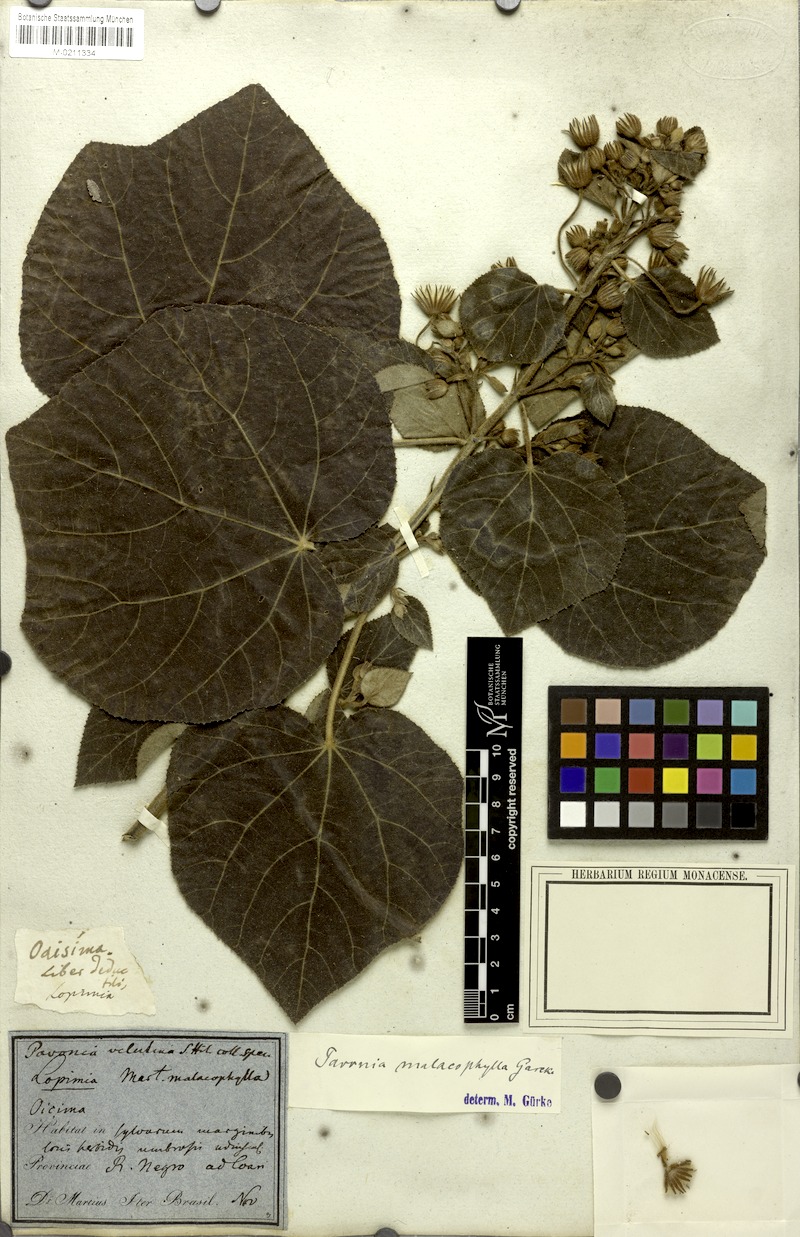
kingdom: Plantae
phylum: Tracheophyta
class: Magnoliopsida
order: Malvales
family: Malvaceae
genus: Pavonia
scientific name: Pavonia malacophylla
